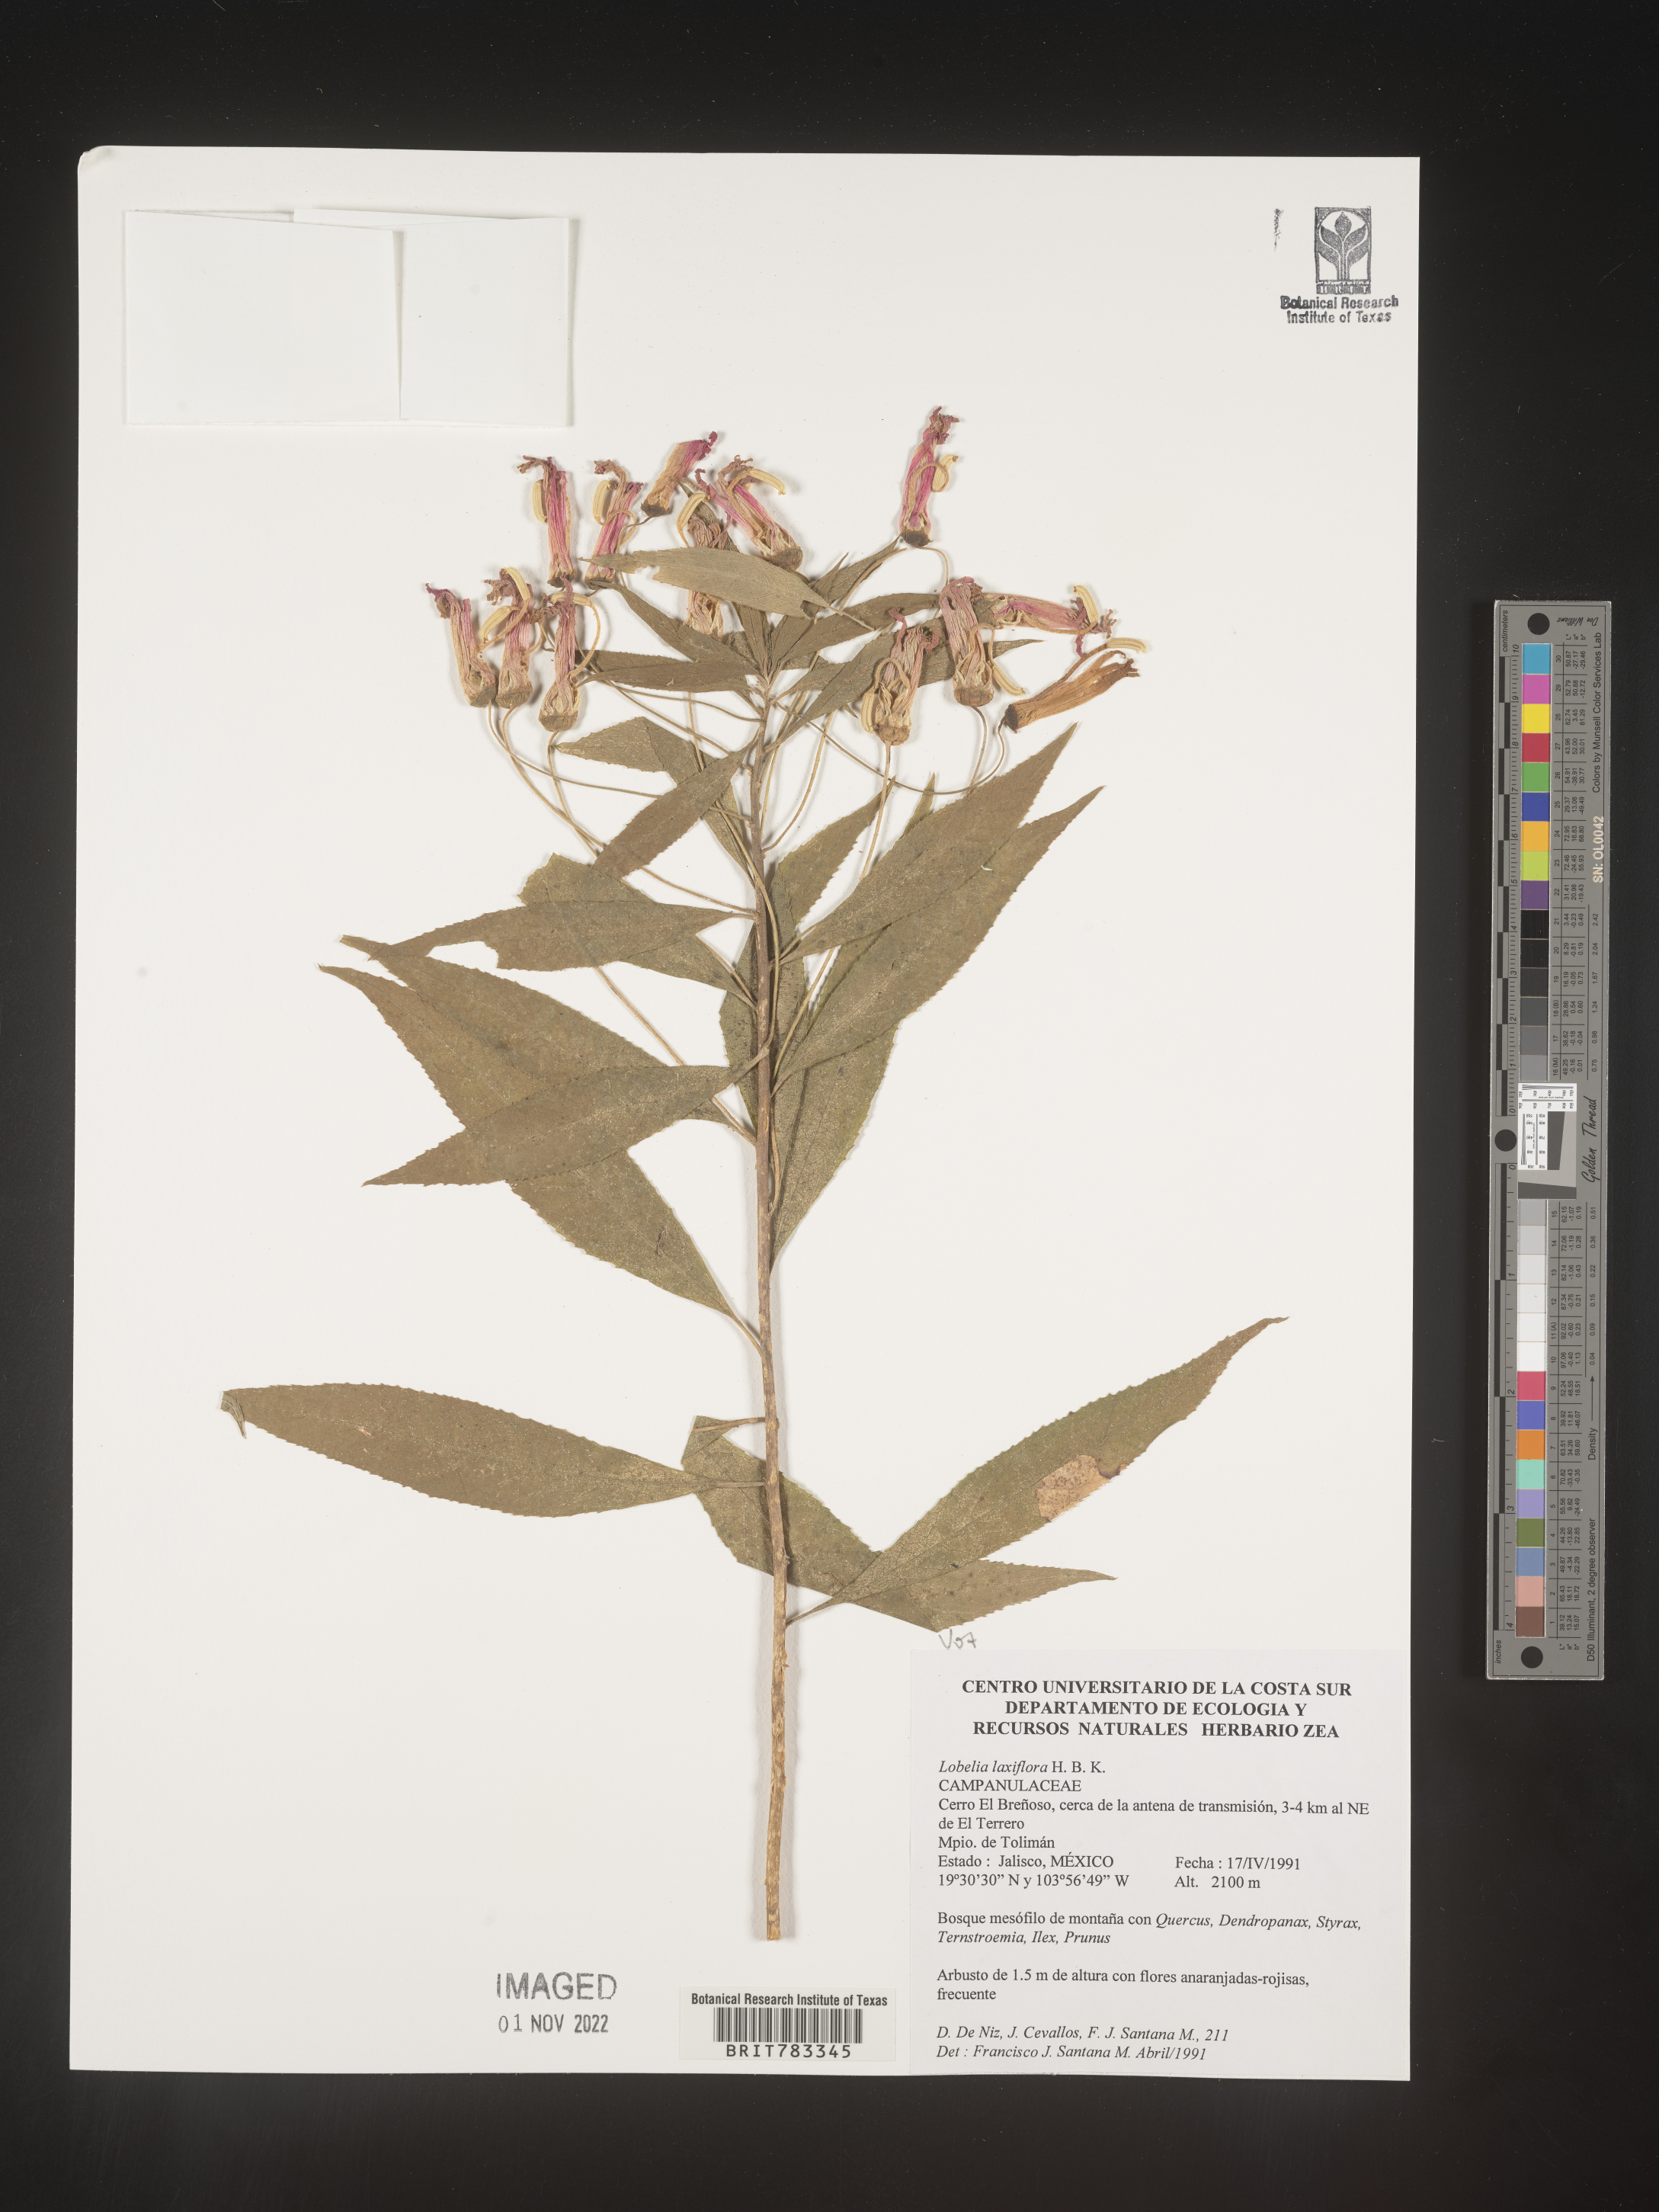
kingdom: Plantae
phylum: Tracheophyta
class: Magnoliopsida
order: Asterales
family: Campanulaceae
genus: Lobelia
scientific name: Lobelia
